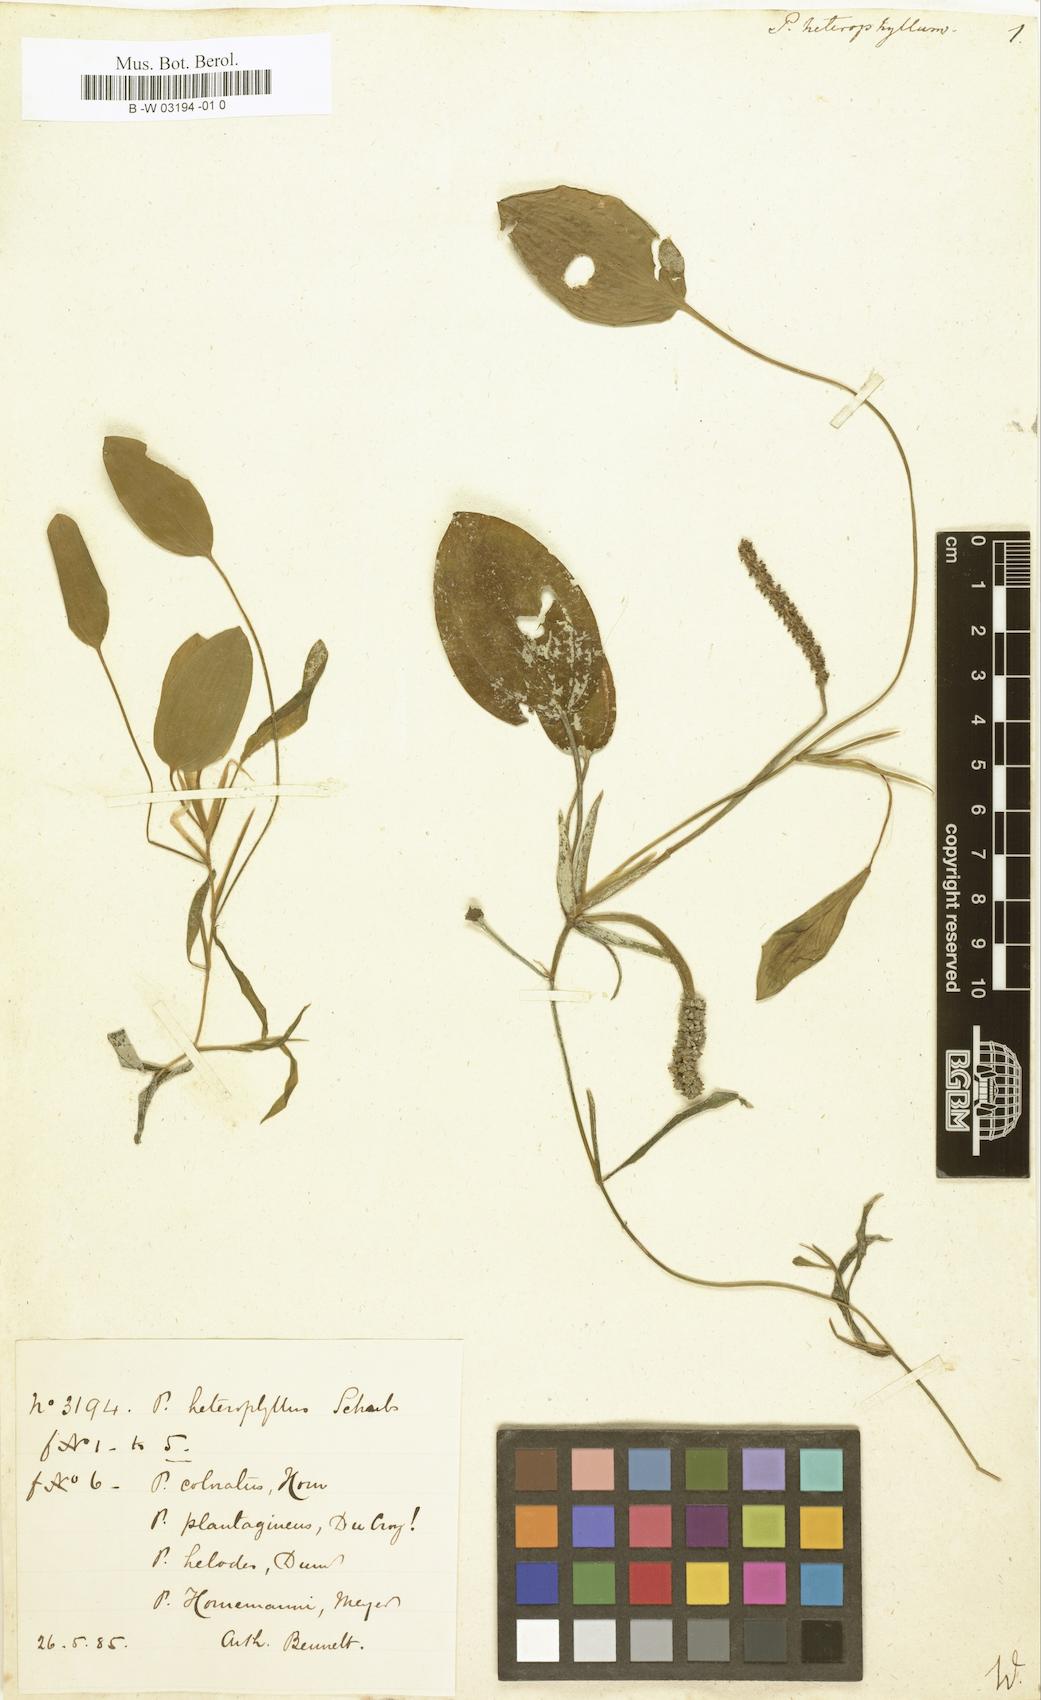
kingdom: Plantae
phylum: Tracheophyta
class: Liliopsida
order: Alismatales
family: Potamogetonaceae
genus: Potamogeton
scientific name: Potamogeton heterophyllus
